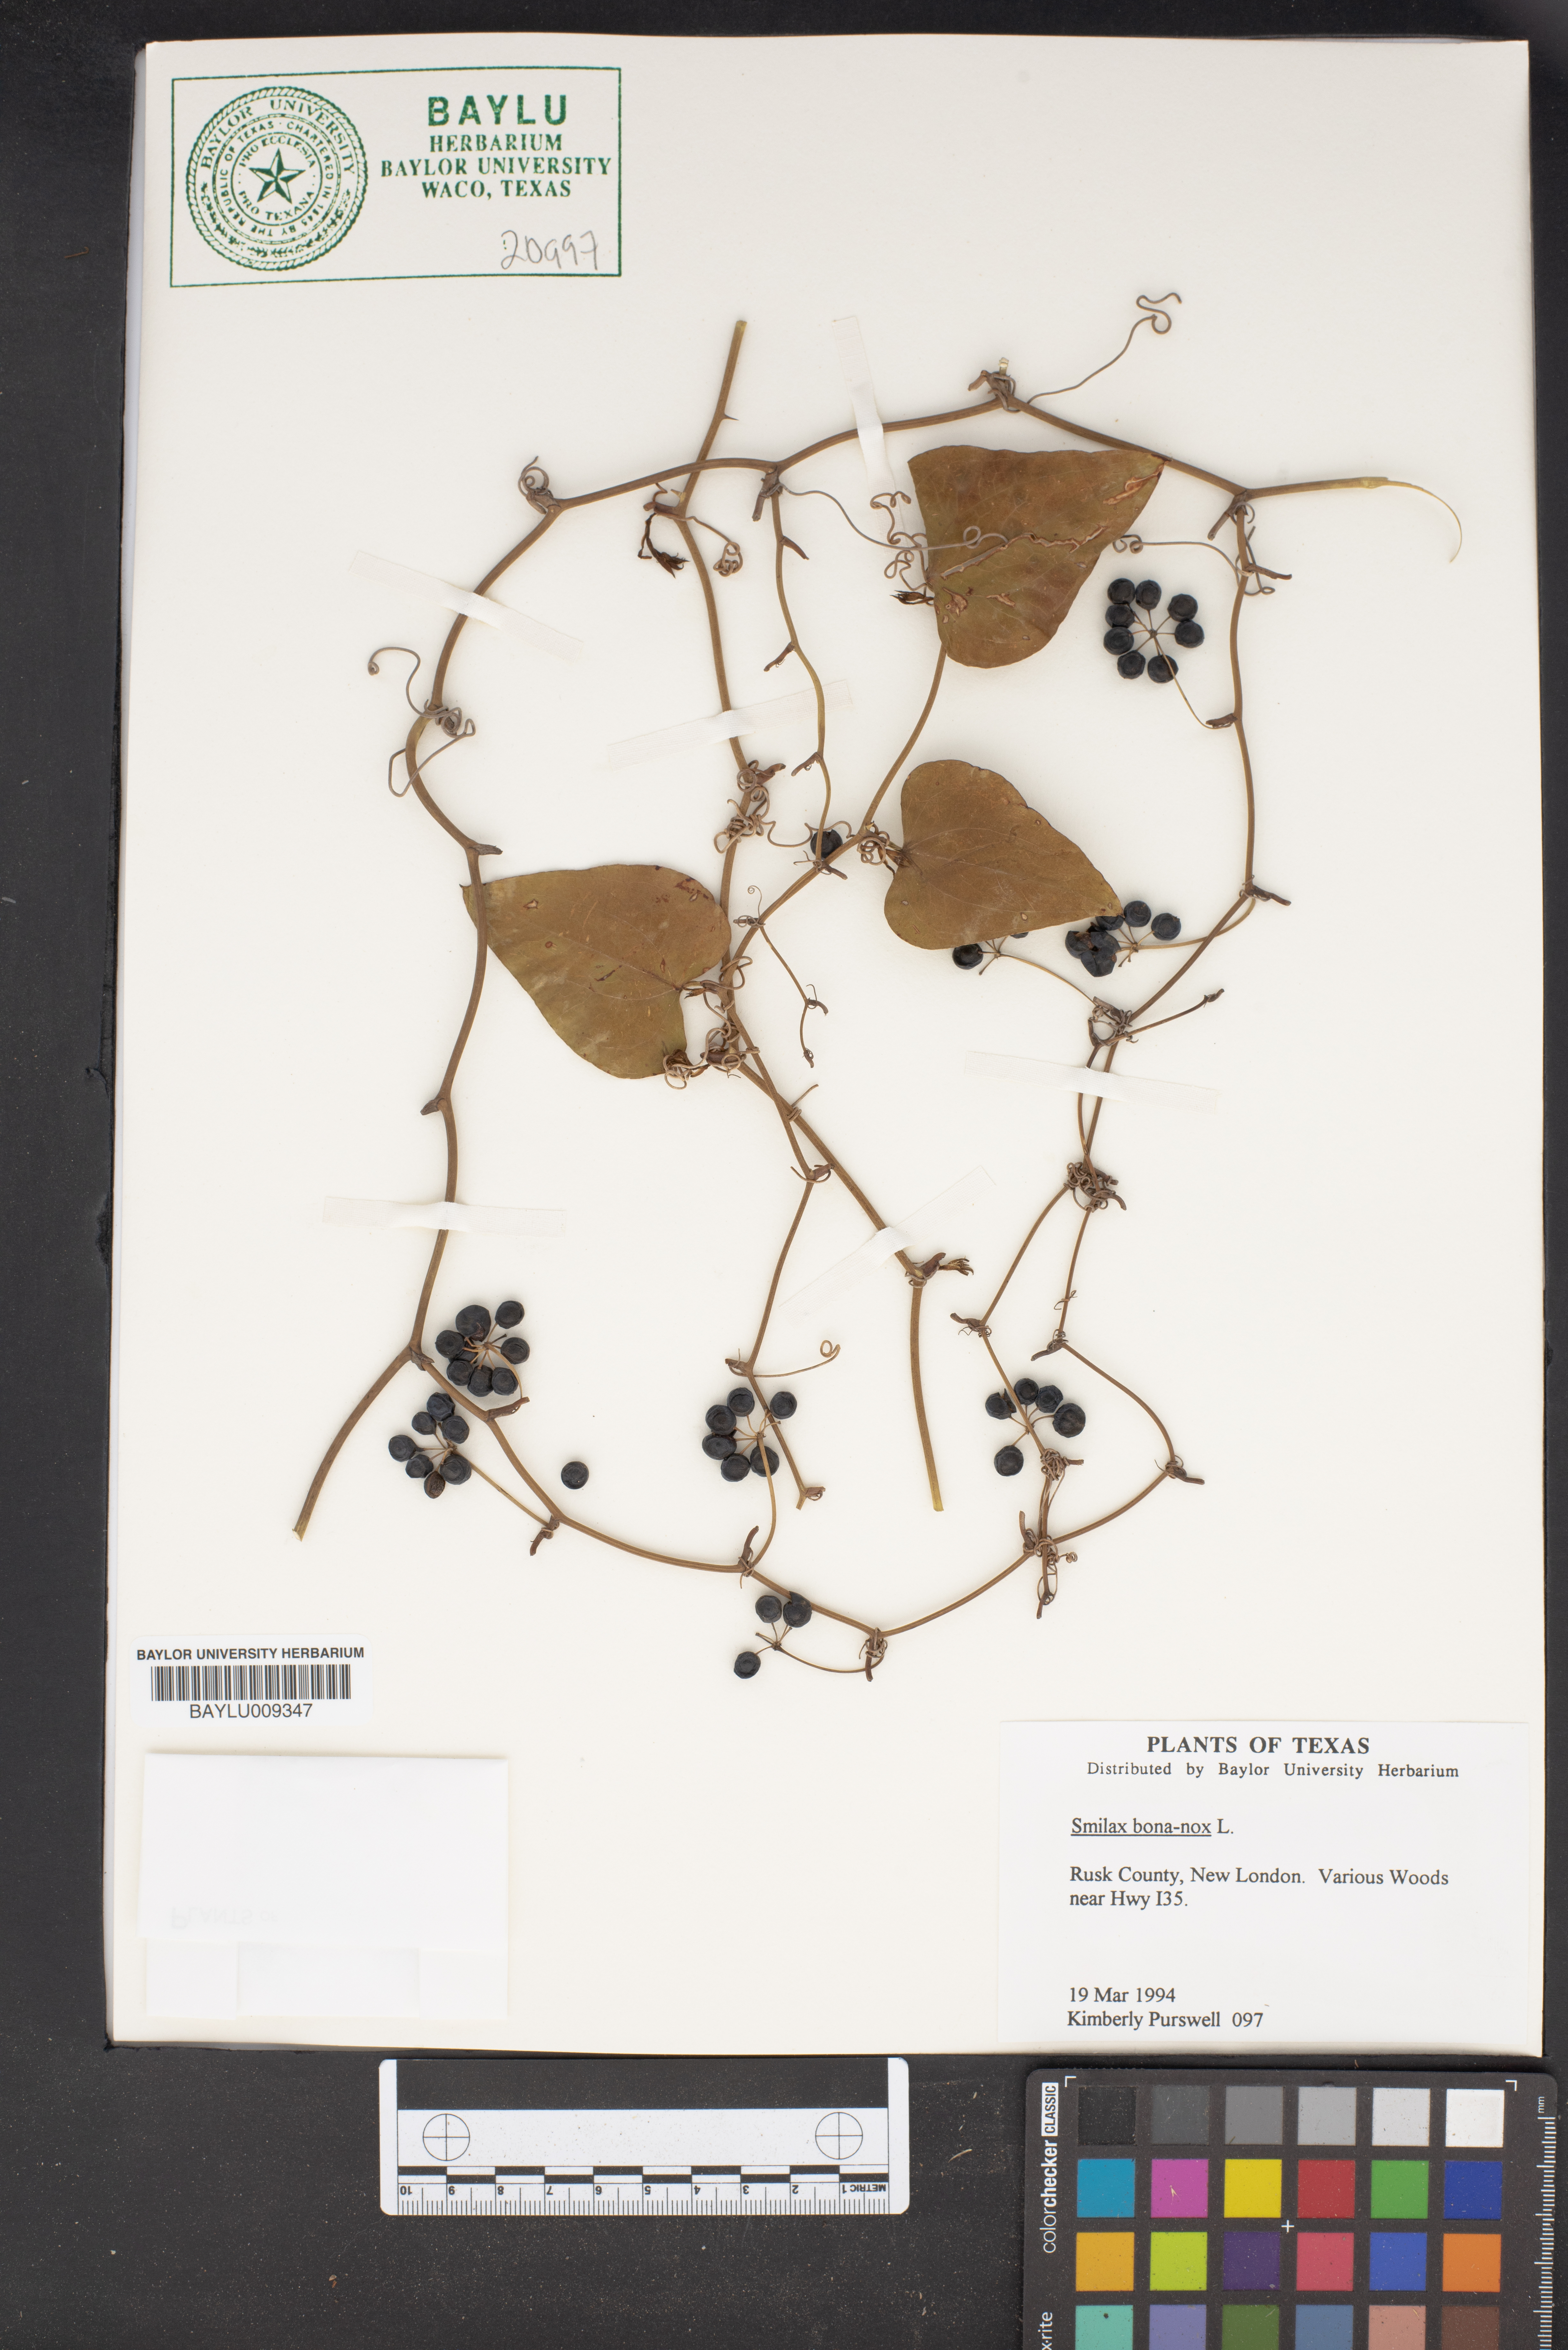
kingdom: Plantae
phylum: Tracheophyta
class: Liliopsida
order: Liliales
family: Smilacaceae
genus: Smilax
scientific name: Smilax bona-nox
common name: Catbrier
